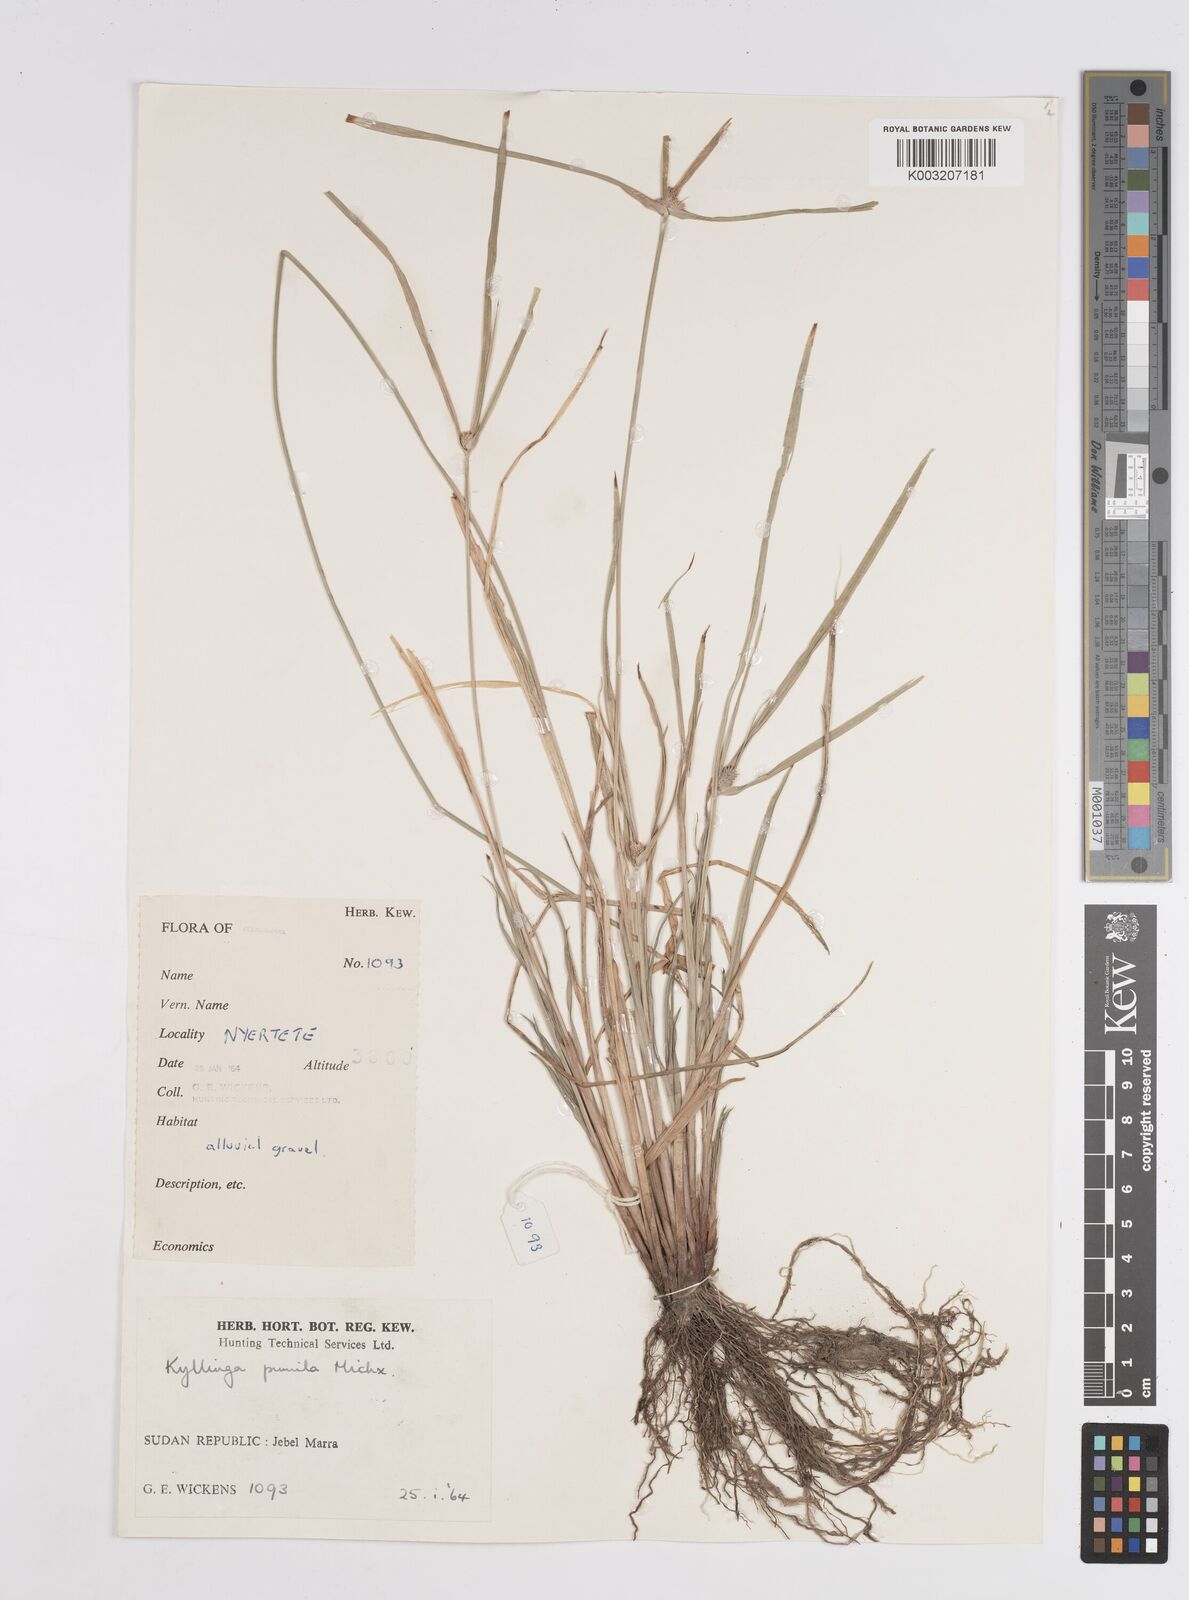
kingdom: Plantae
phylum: Tracheophyta
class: Liliopsida
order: Poales
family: Cyperaceae
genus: Cyperus
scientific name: Cyperus
